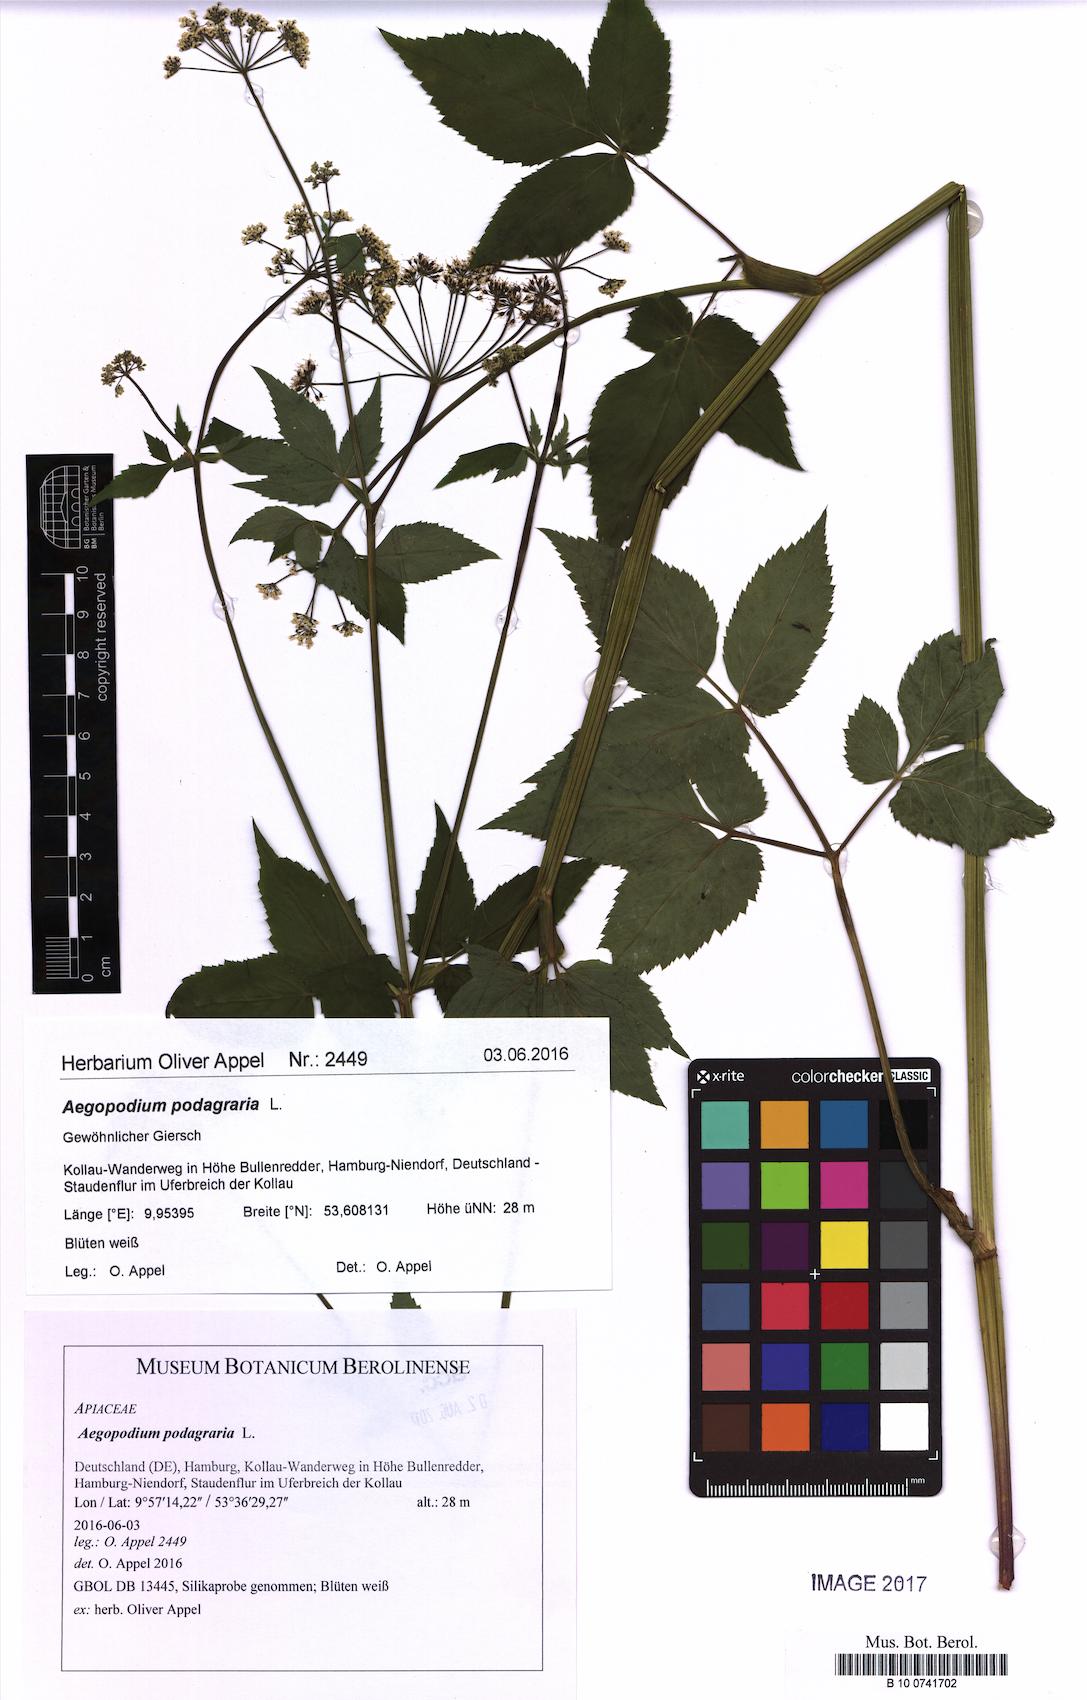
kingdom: Plantae
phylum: Tracheophyta
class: Magnoliopsida
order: Apiales
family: Apiaceae
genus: Aegopodium
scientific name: Aegopodium podagraria
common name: Ground-elder
